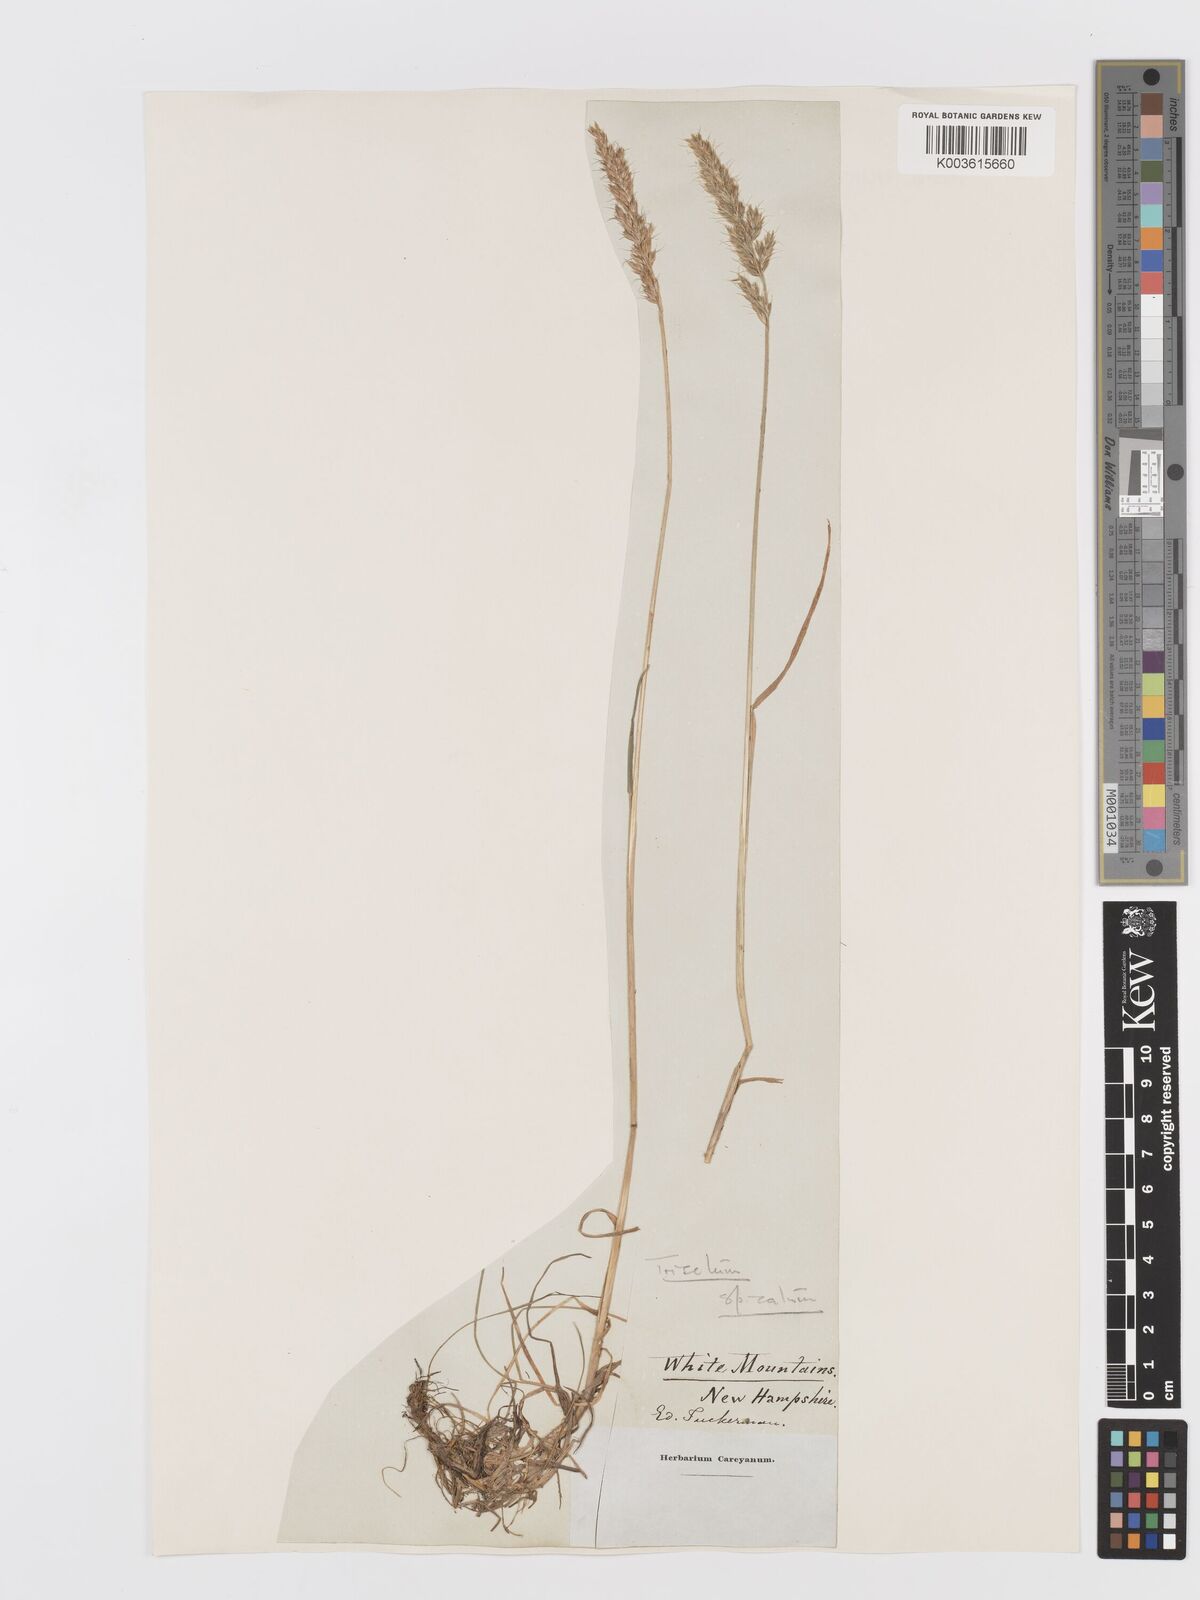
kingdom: Plantae
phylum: Tracheophyta
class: Liliopsida
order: Poales
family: Poaceae
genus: Koeleria
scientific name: Koeleria spicata
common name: Mountain trisetum
